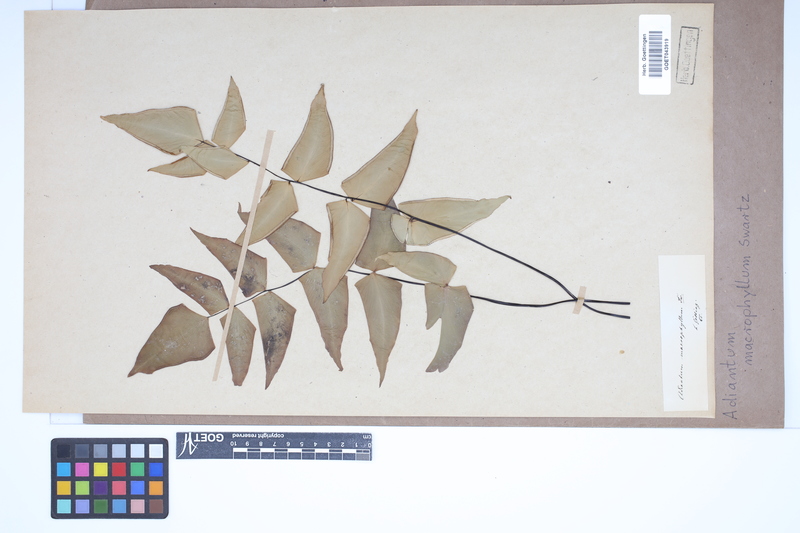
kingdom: Plantae
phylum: Tracheophyta
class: Polypodiopsida
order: Polypodiales
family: Pteridaceae
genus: Adiantum
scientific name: Adiantum macrophyllum
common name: Largeleaf maidenhair
